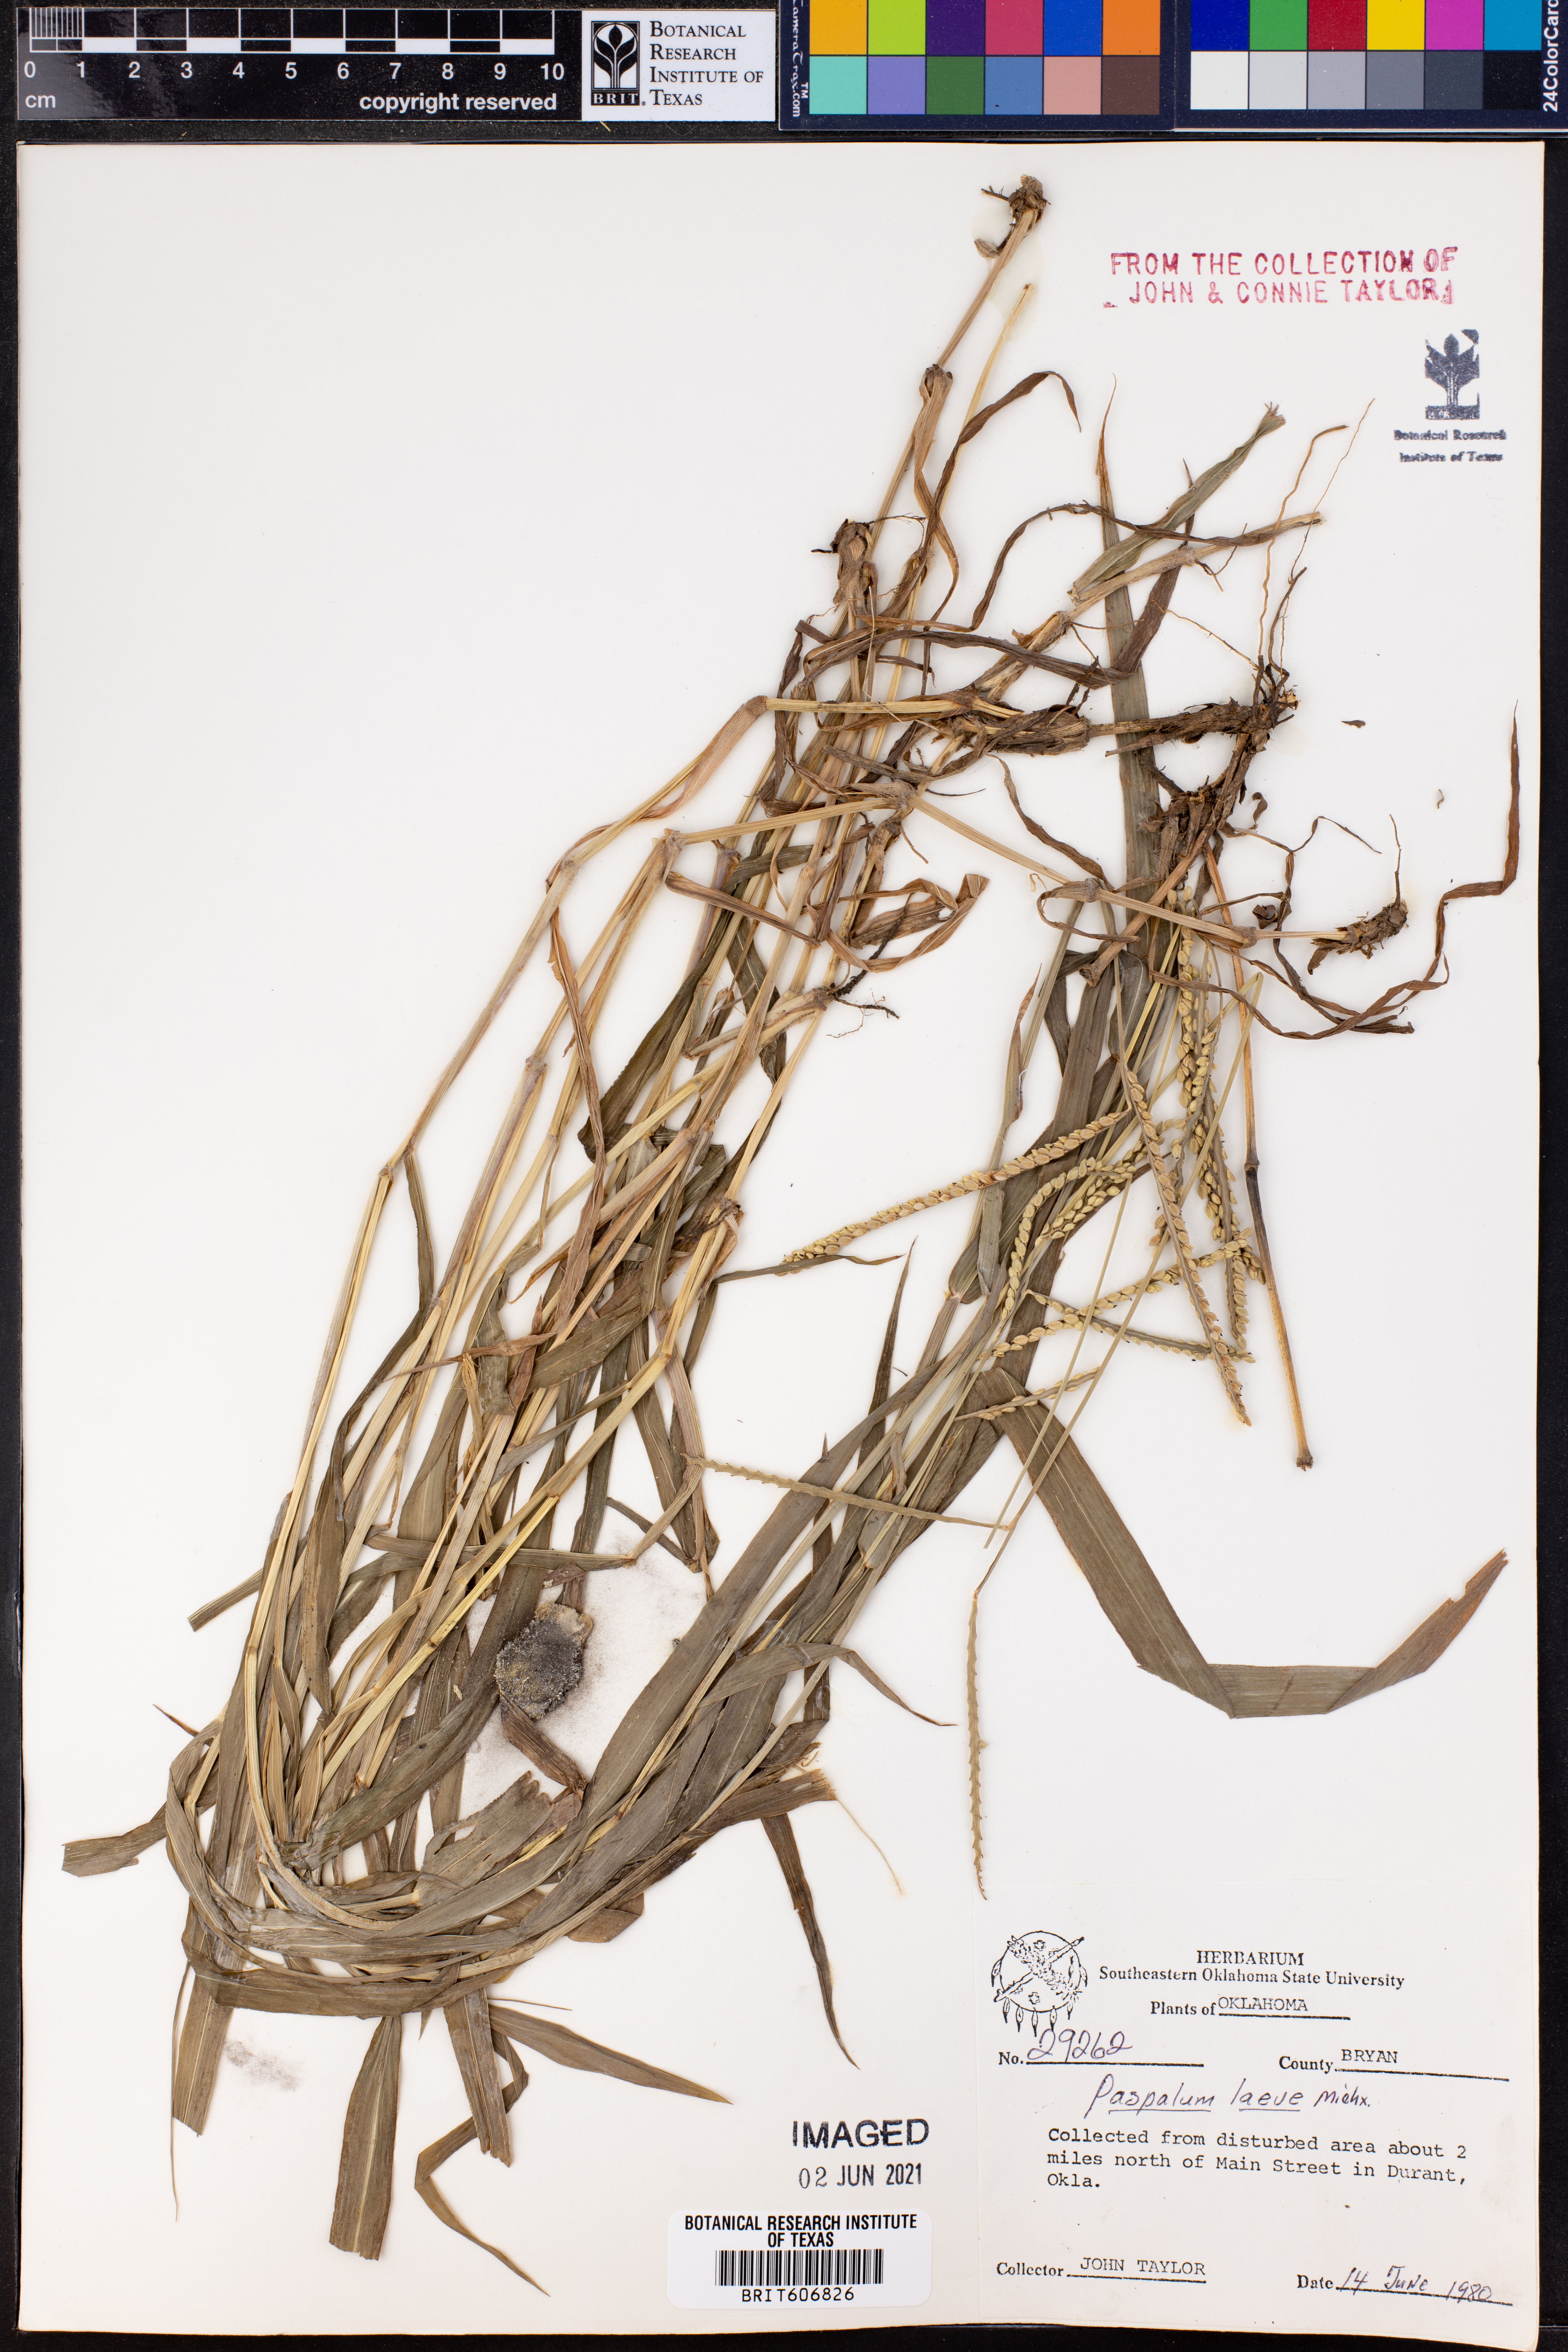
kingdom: Plantae
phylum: Tracheophyta
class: Liliopsida
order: Poales
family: Poaceae
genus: Paspalum
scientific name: Paspalum laeve
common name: Field paspalum
